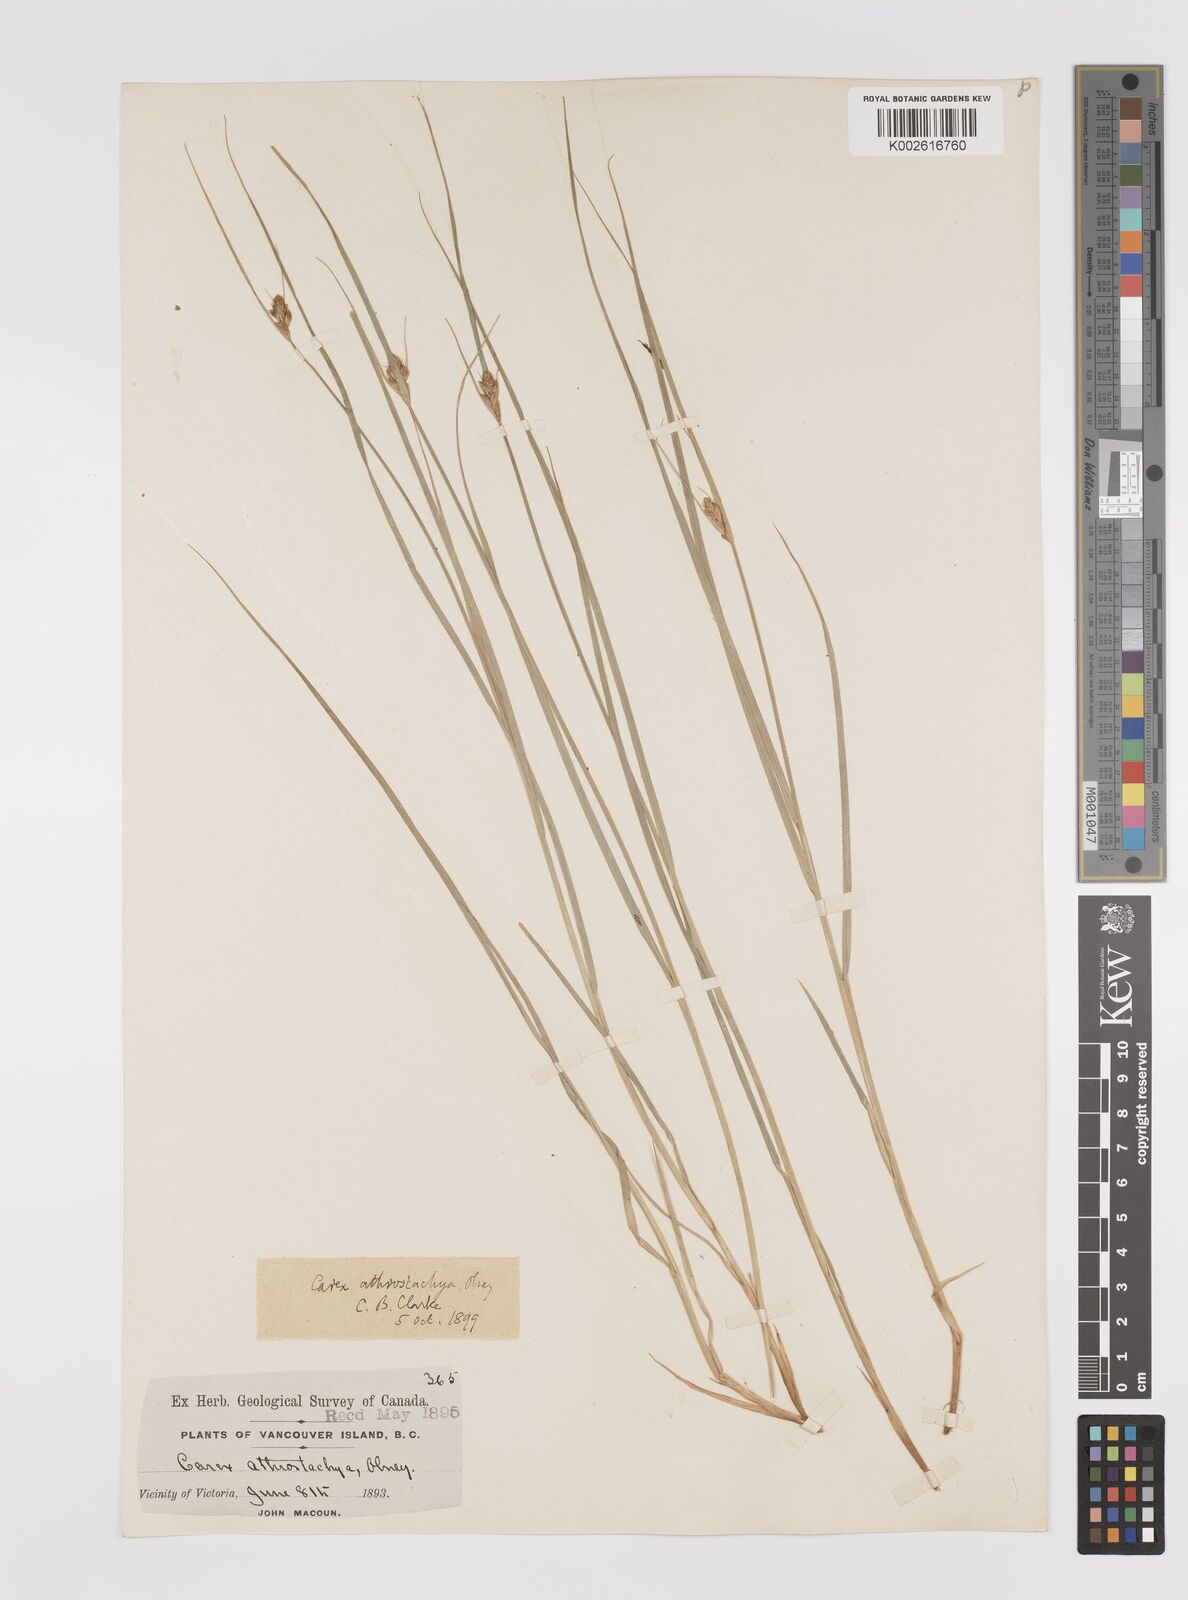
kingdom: Plantae
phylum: Tracheophyta
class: Liliopsida
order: Poales
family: Cyperaceae
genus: Carex
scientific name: Carex athrostachya
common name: Slenderbeak sedge
